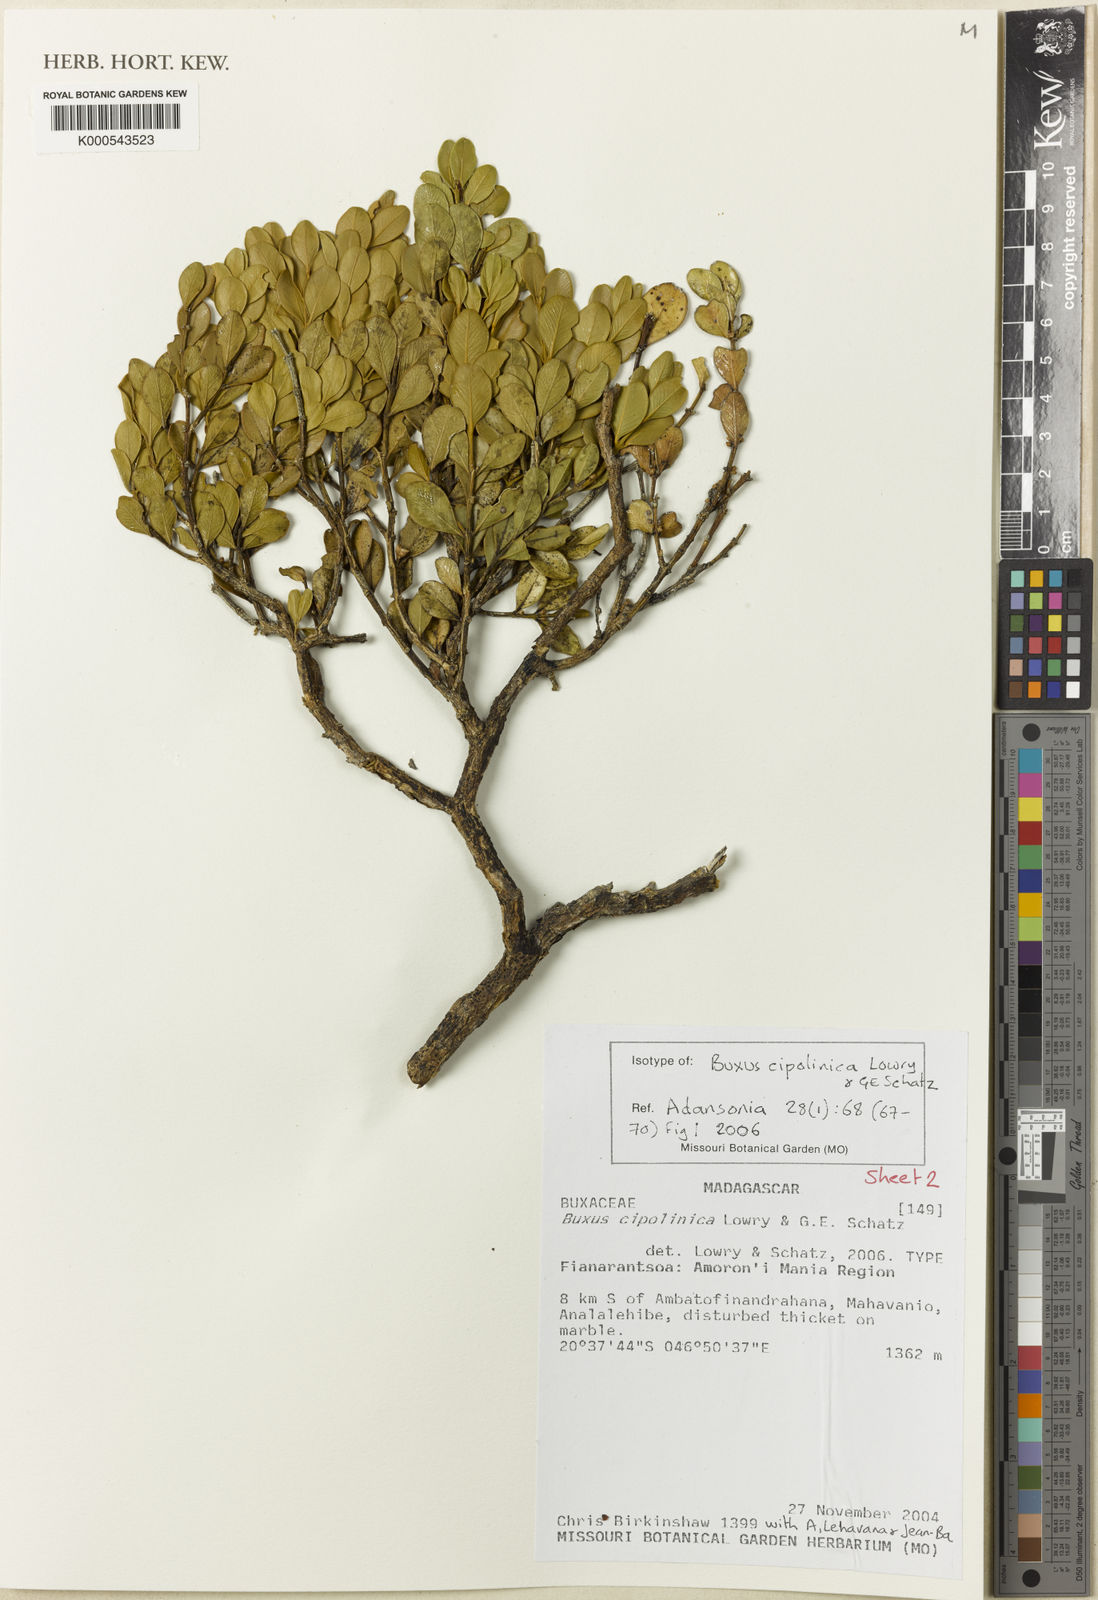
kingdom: Plantae
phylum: Tracheophyta
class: Magnoliopsida
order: Buxales
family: Buxaceae
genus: Buxus
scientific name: Buxus cipolinica
